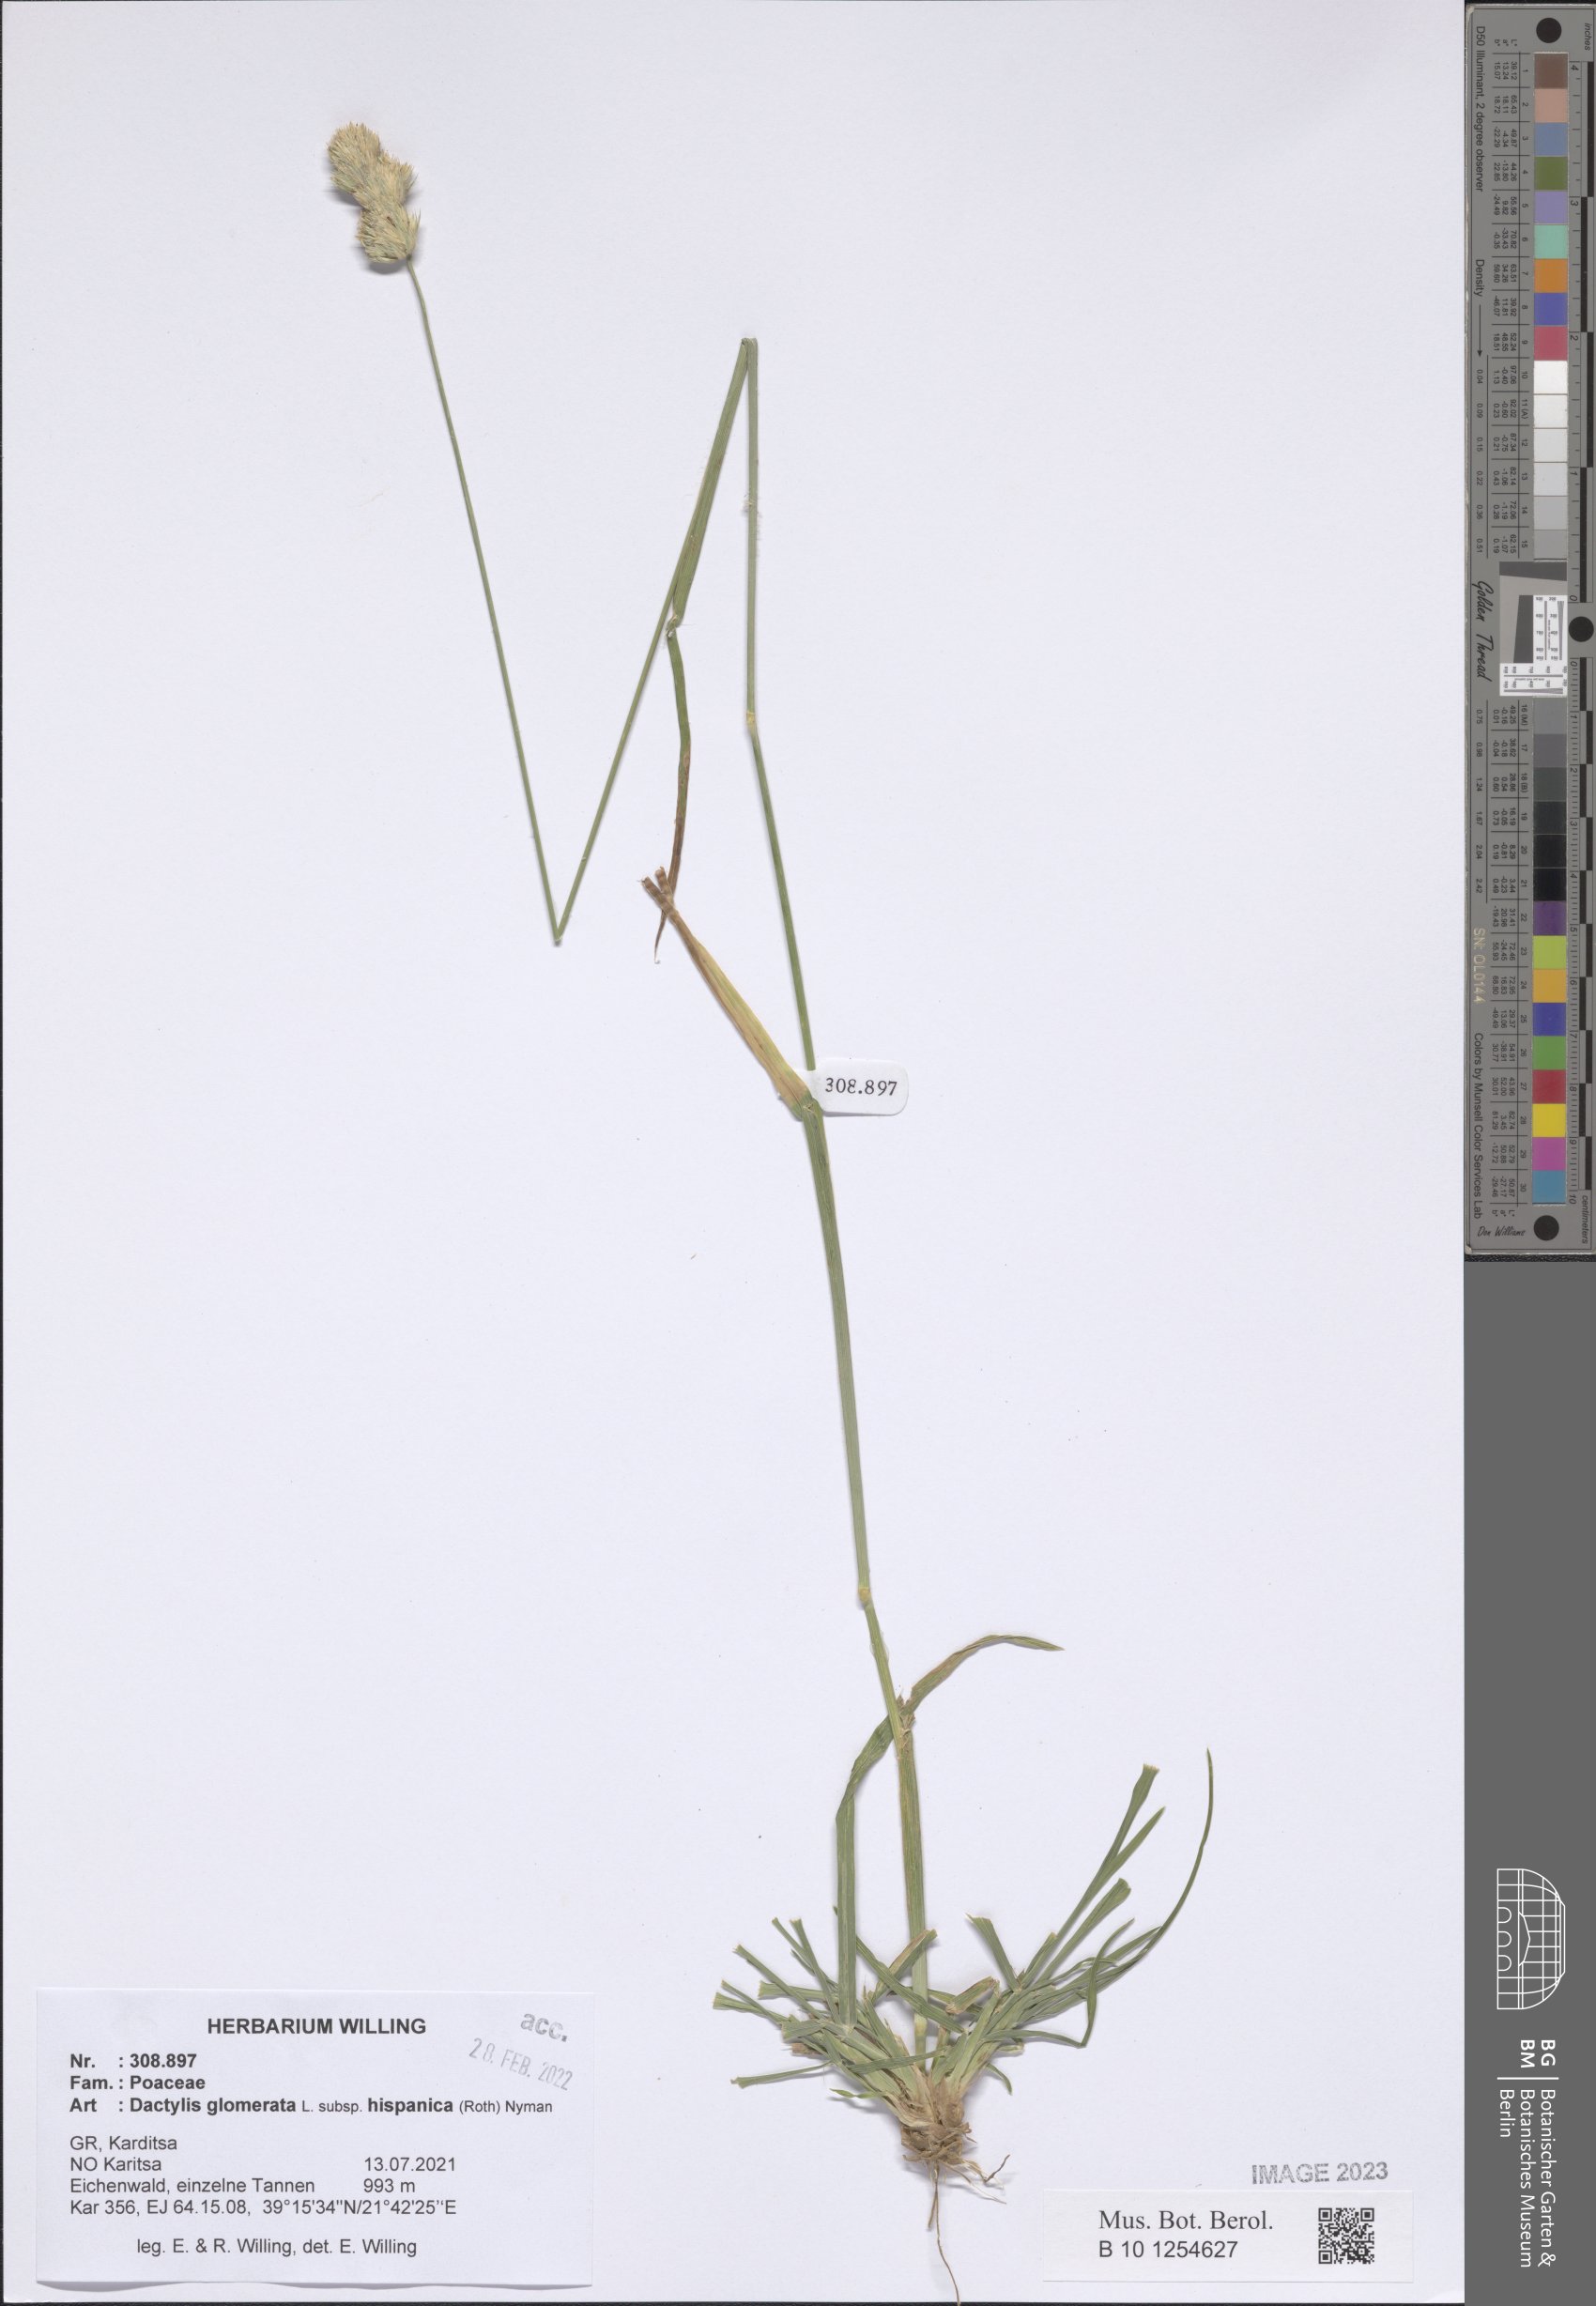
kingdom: Plantae
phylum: Tracheophyta
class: Liliopsida
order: Poales
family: Poaceae
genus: Dactylis
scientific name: Dactylis glomerata
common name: Orchardgrass
